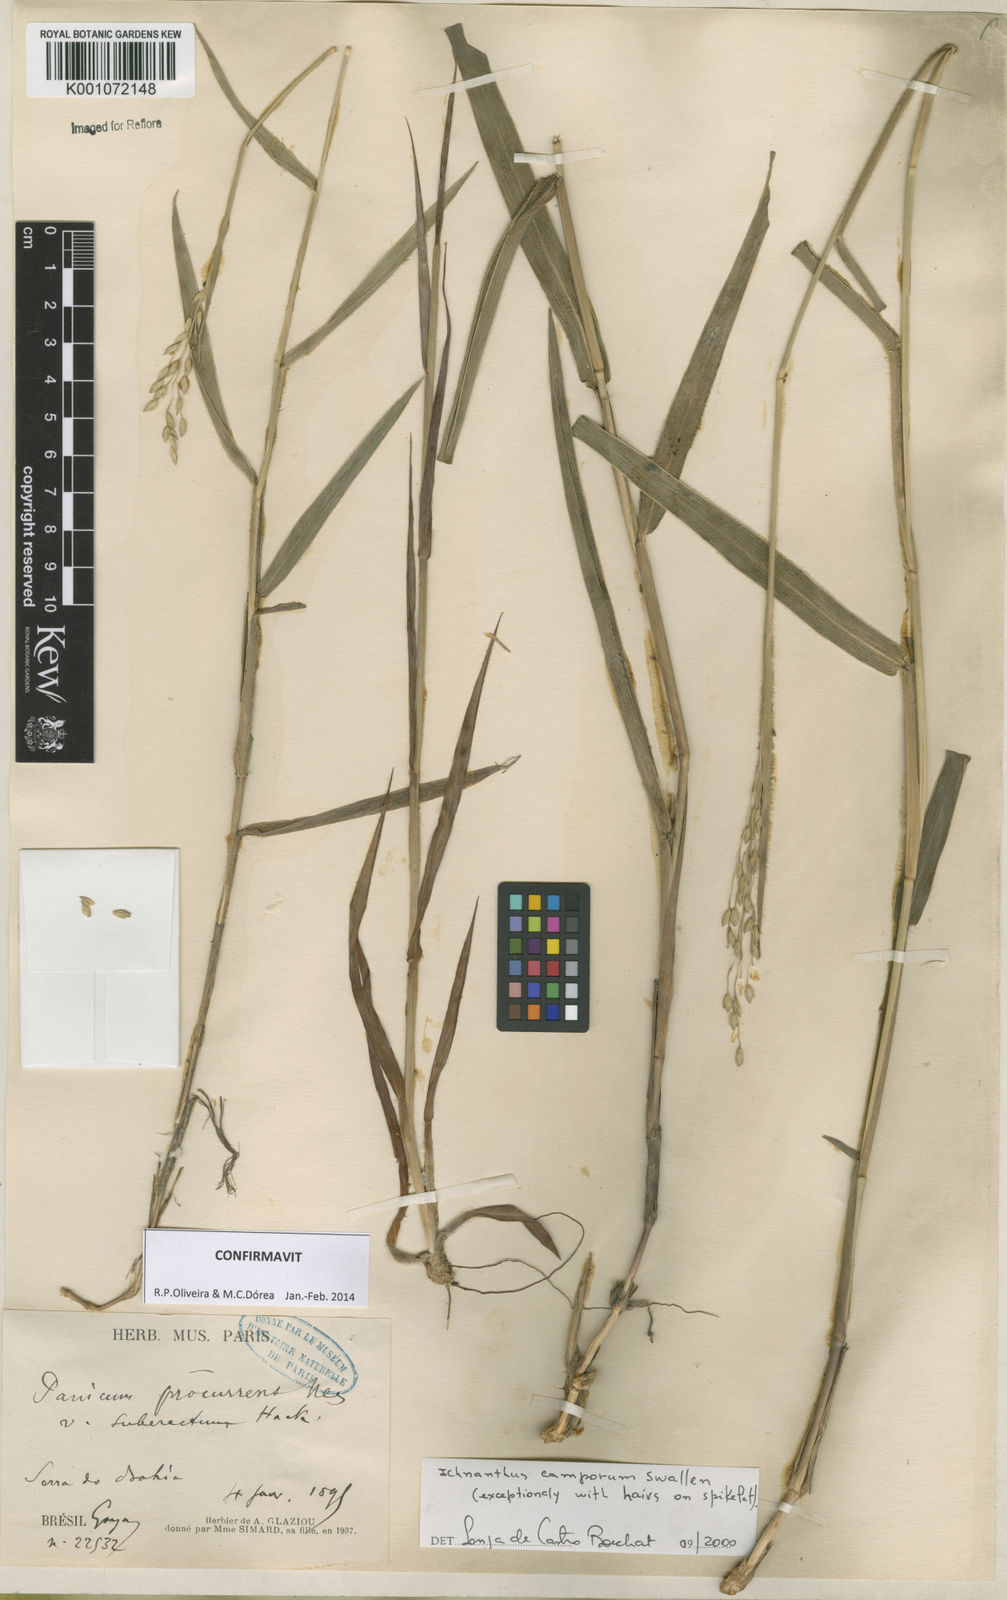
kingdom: Plantae
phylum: Tracheophyta
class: Liliopsida
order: Poales
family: Poaceae
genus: Oedochloa
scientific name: Oedochloa camporum
